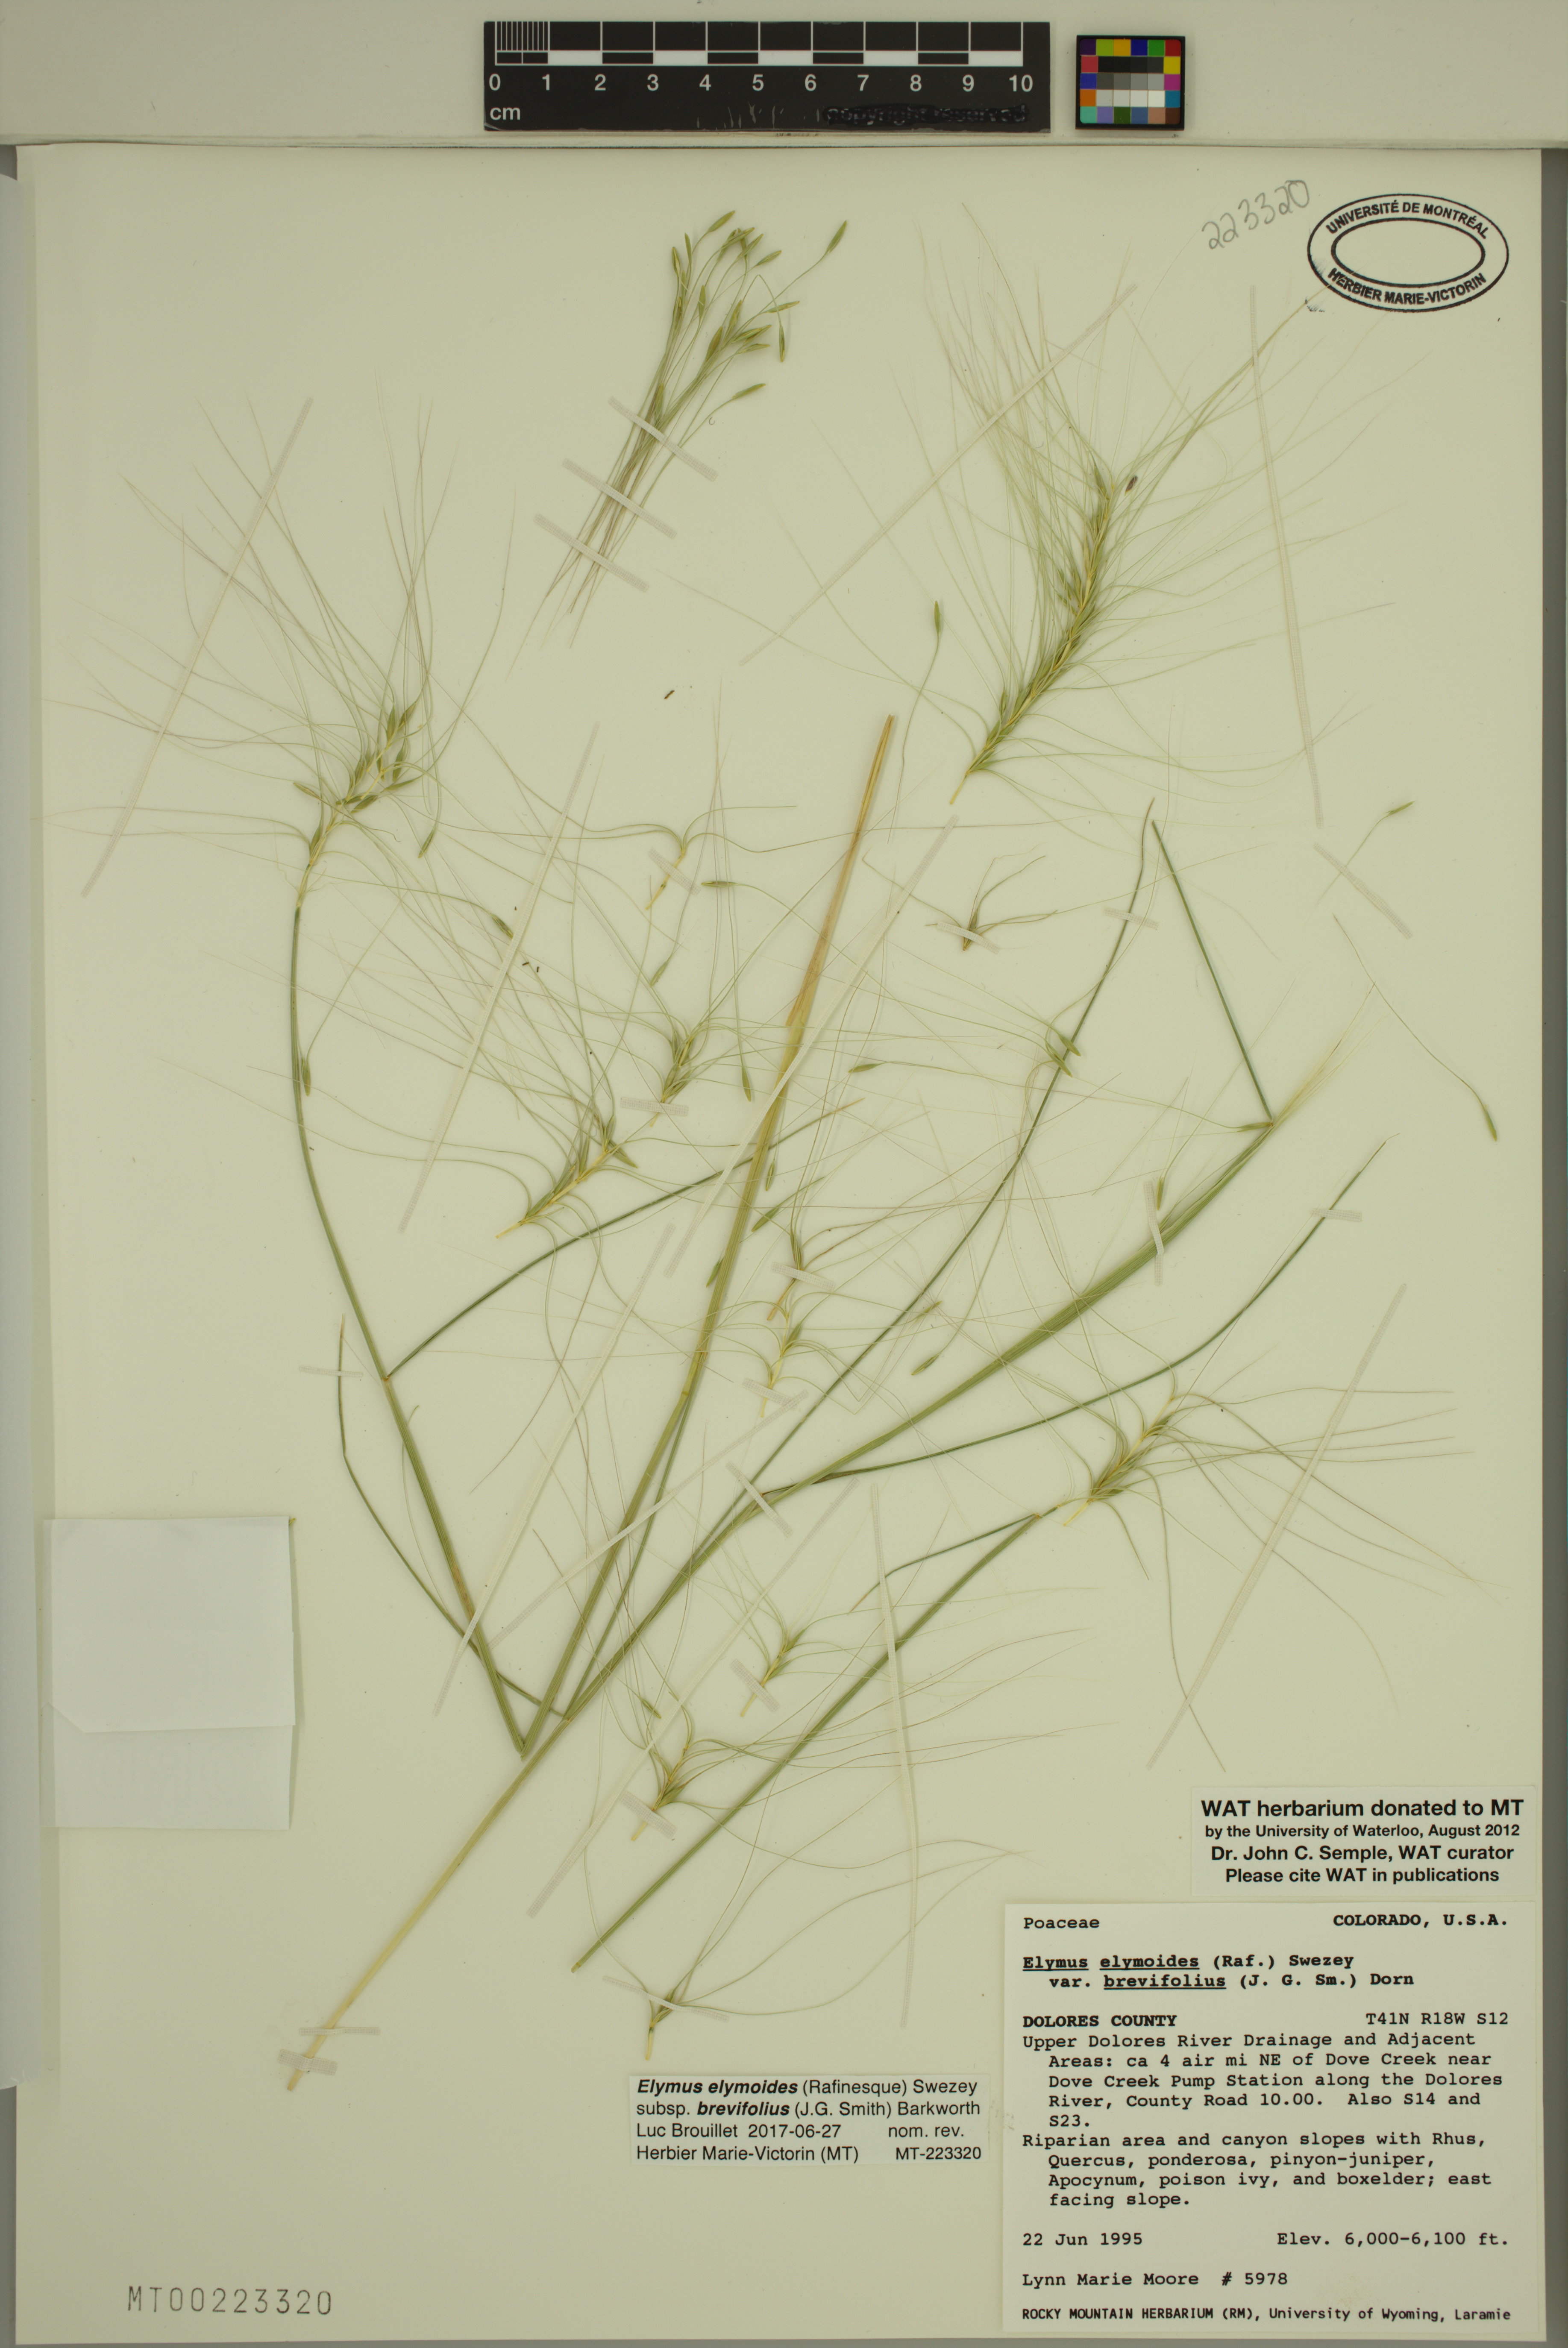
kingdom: Plantae
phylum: Tracheophyta
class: Liliopsida
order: Poales
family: Poaceae
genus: Elymus
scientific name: Elymus longifolius
